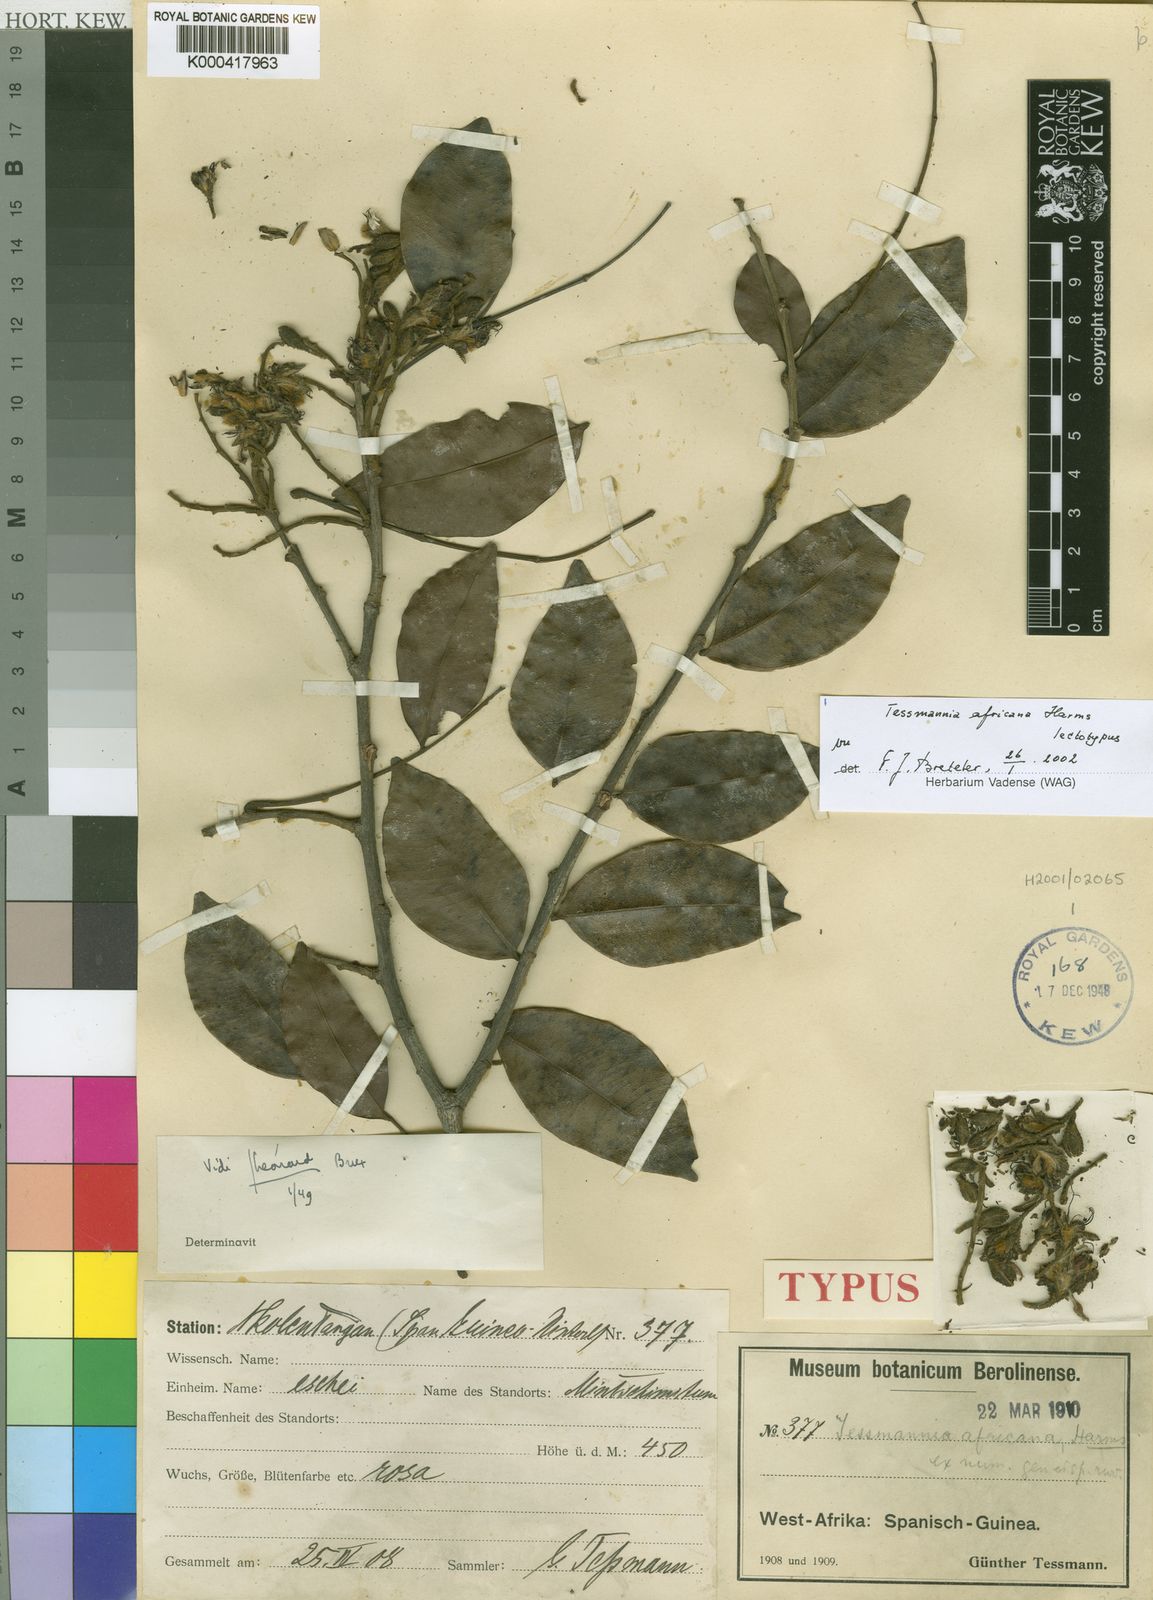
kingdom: Plantae
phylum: Tracheophyta
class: Magnoliopsida
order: Fabales
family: Fabaceae
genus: Tessmannia
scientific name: Tessmannia africana
